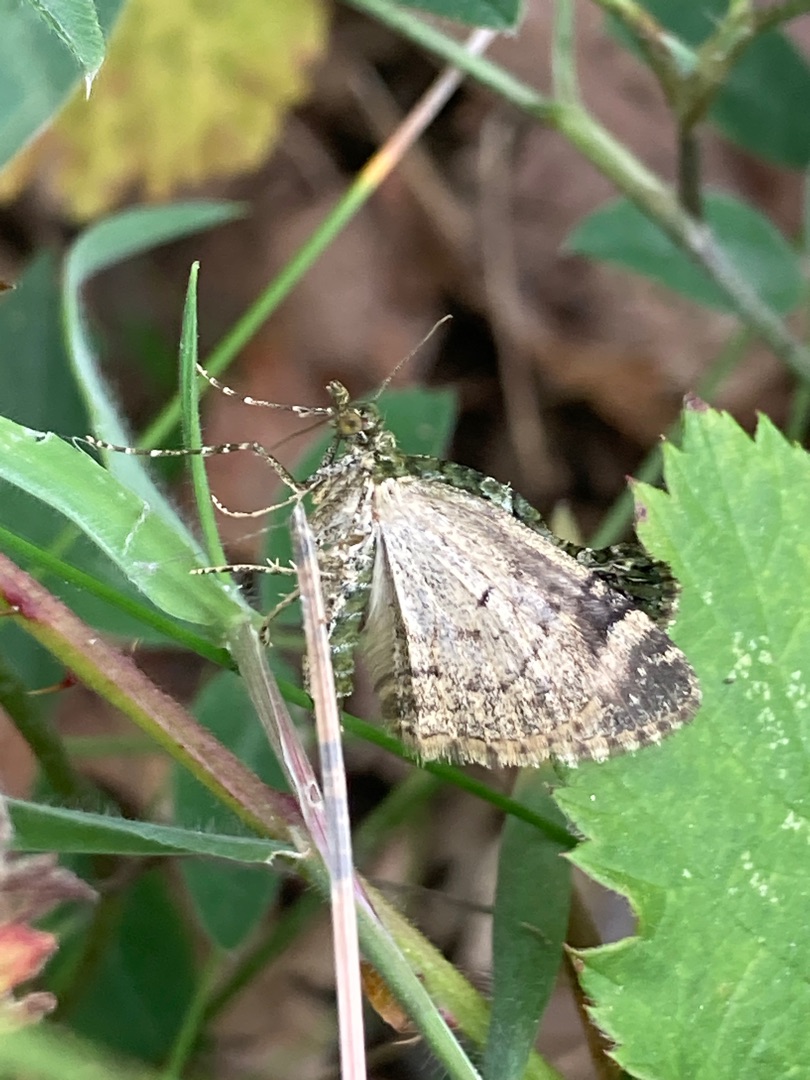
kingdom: Animalia
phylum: Arthropoda
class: Insecta
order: Lepidoptera
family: Geometridae
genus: Chloroclysta
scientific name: Chloroclysta siterata
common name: Brungrøn bladmåler
